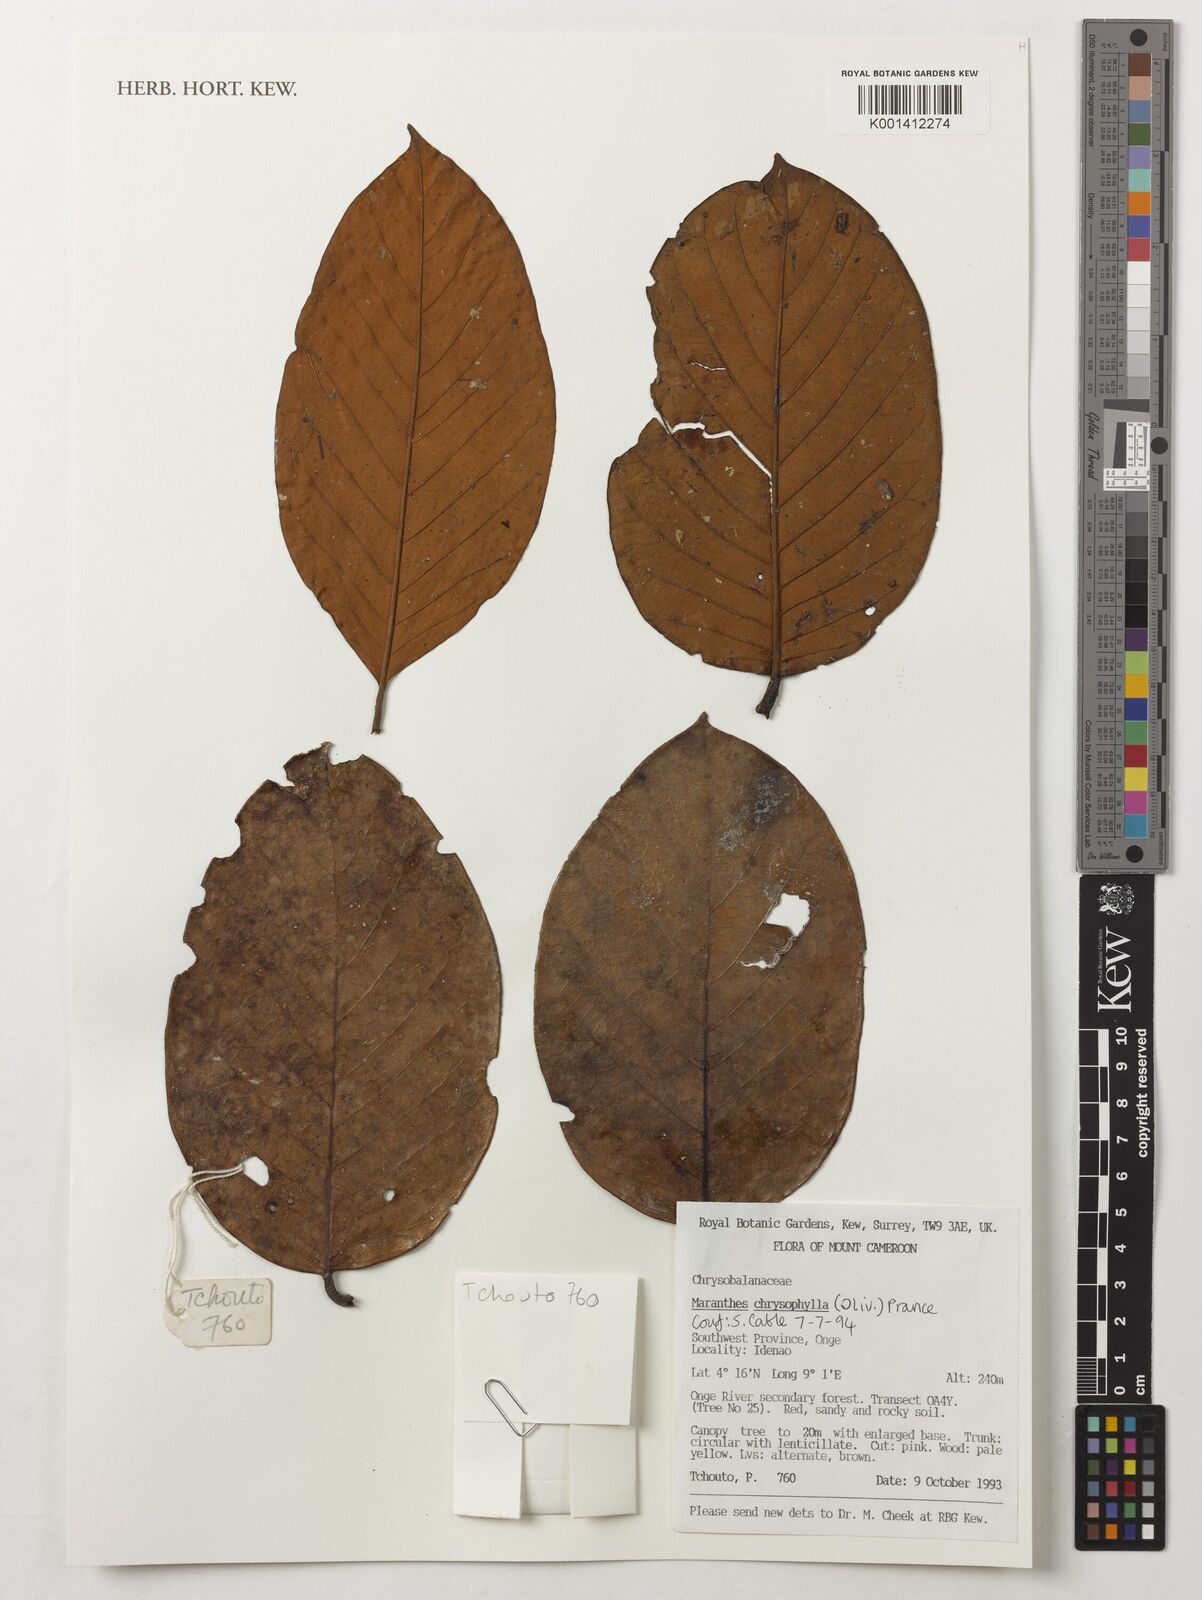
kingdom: Plantae
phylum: Tracheophyta
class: Magnoliopsida
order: Malpighiales
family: Chrysobalanaceae
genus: Maranthes
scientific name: Maranthes chrysophylla
